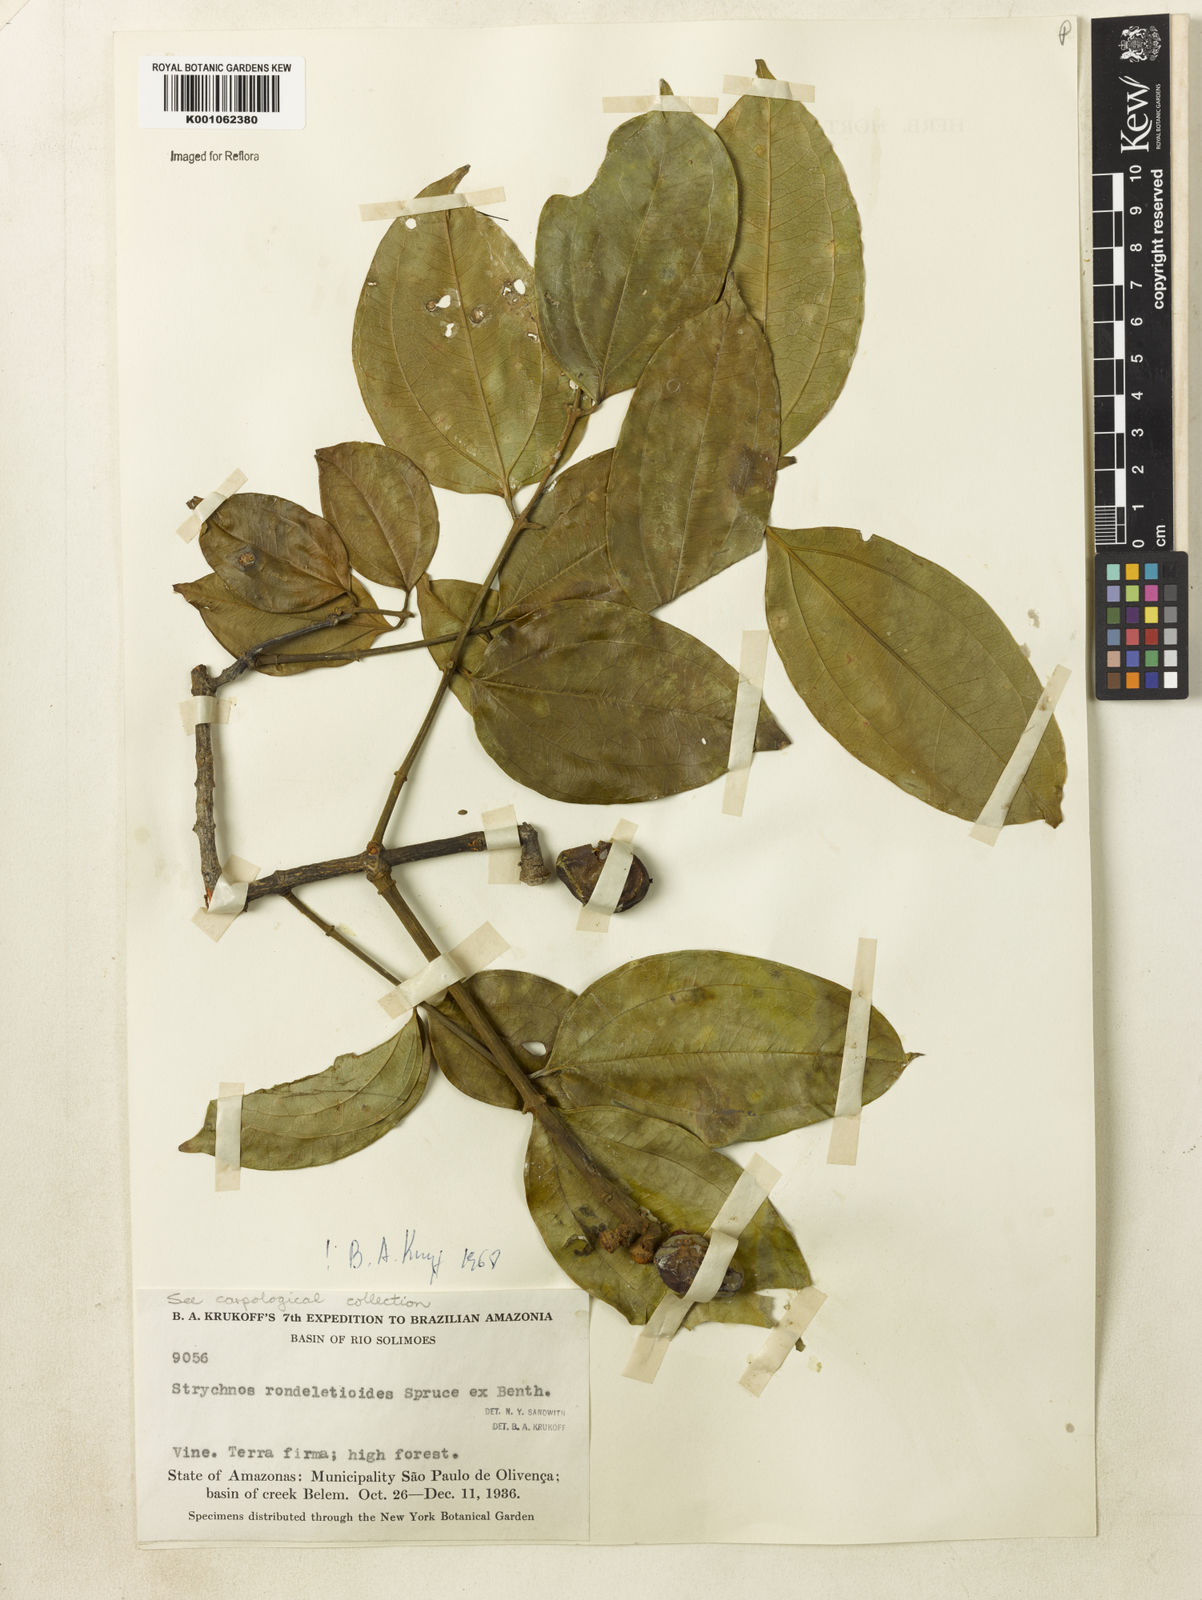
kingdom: Plantae
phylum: Tracheophyta
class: Magnoliopsida
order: Gentianales
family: Loganiaceae
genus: Strychnos
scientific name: Strychnos rondeletioides
